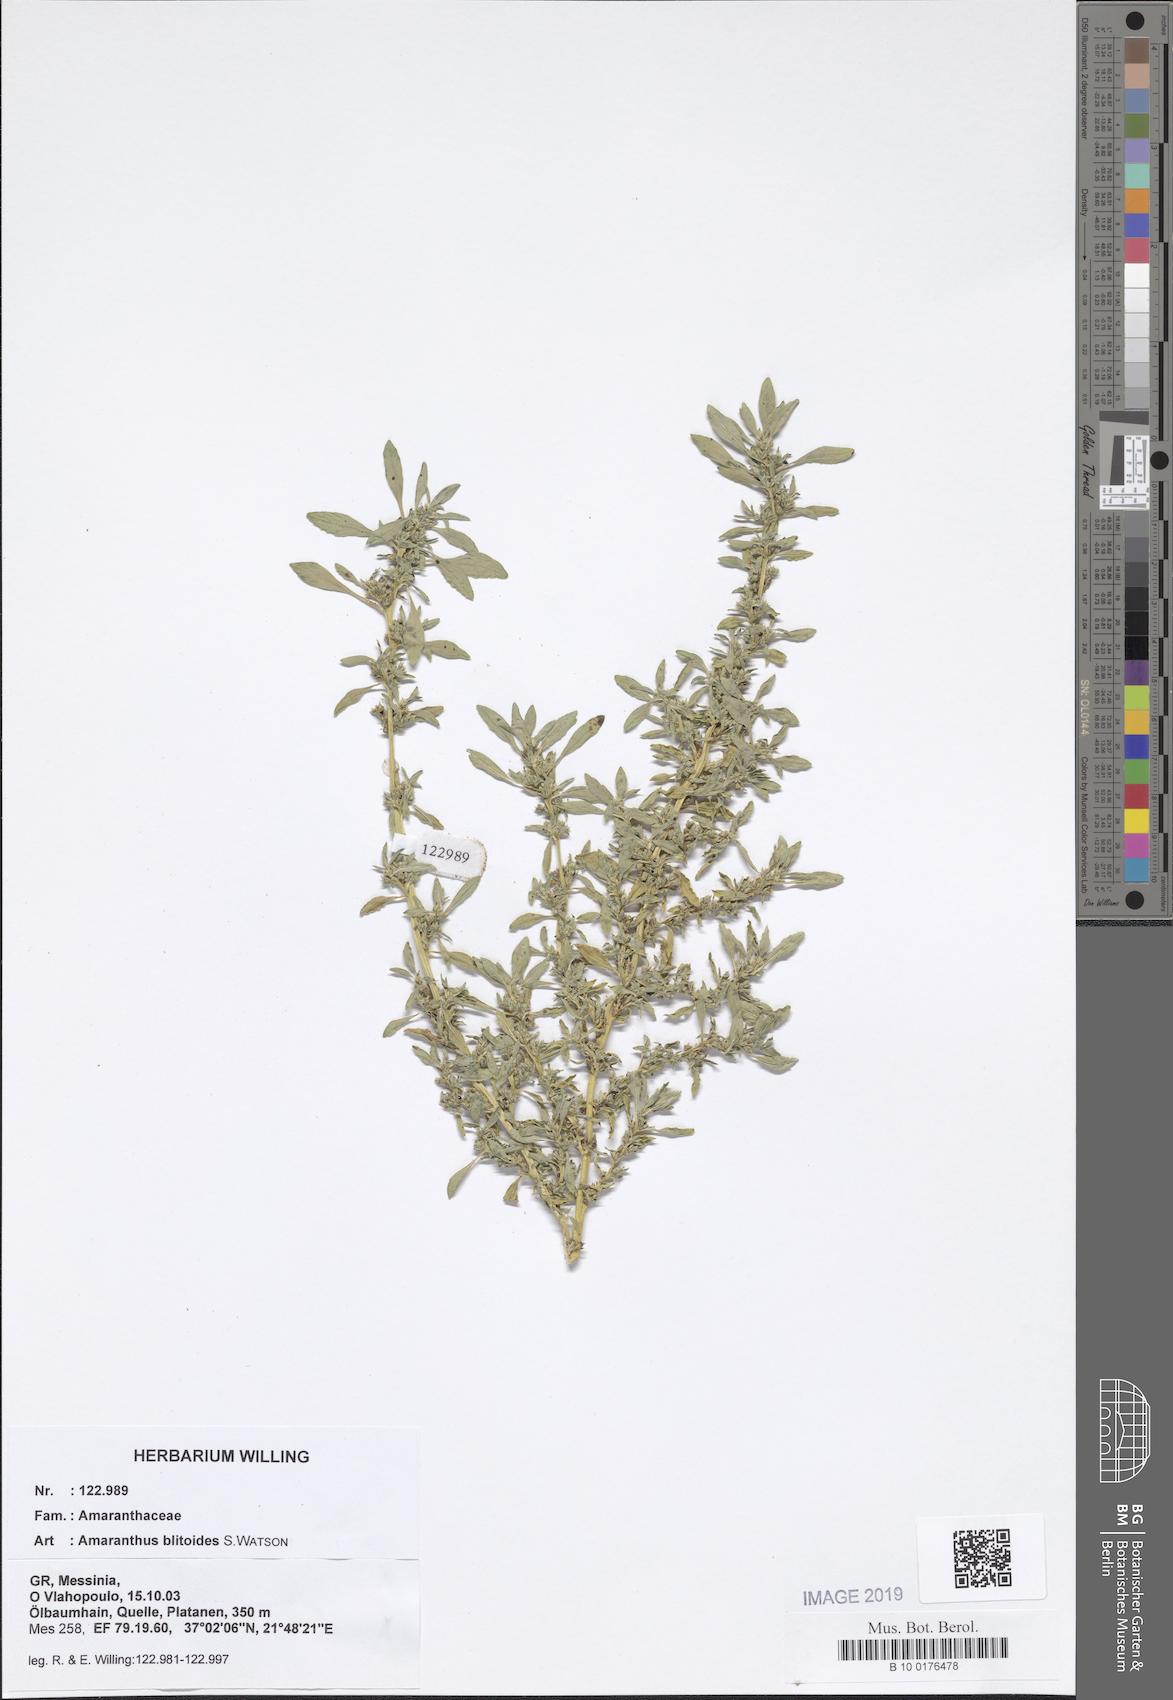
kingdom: Plantae
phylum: Tracheophyta
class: Magnoliopsida
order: Caryophyllales
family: Amaranthaceae
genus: Amaranthus
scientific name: Amaranthus blitoides
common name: Prostrate pigweed
